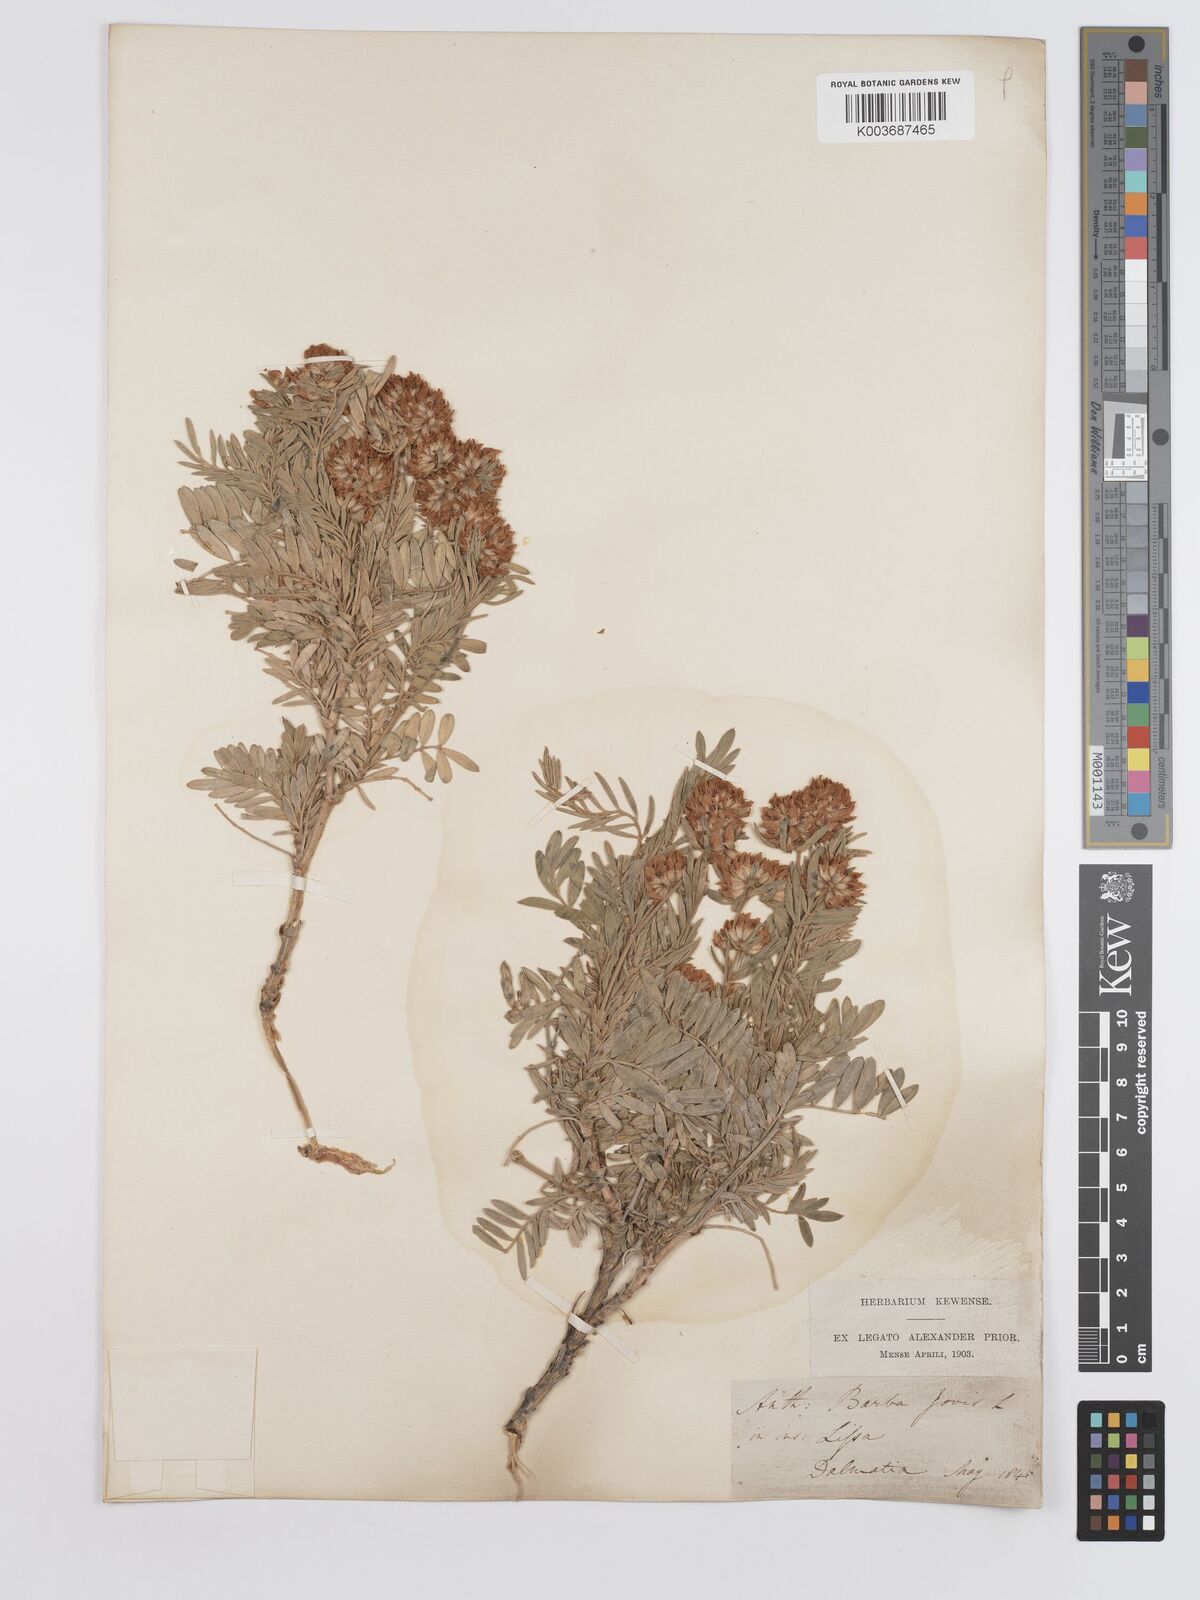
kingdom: Plantae
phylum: Tracheophyta
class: Magnoliopsida
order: Fabales
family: Fabaceae
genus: Anthyllis
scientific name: Anthyllis barba-jovis
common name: Jupiter's-beard
